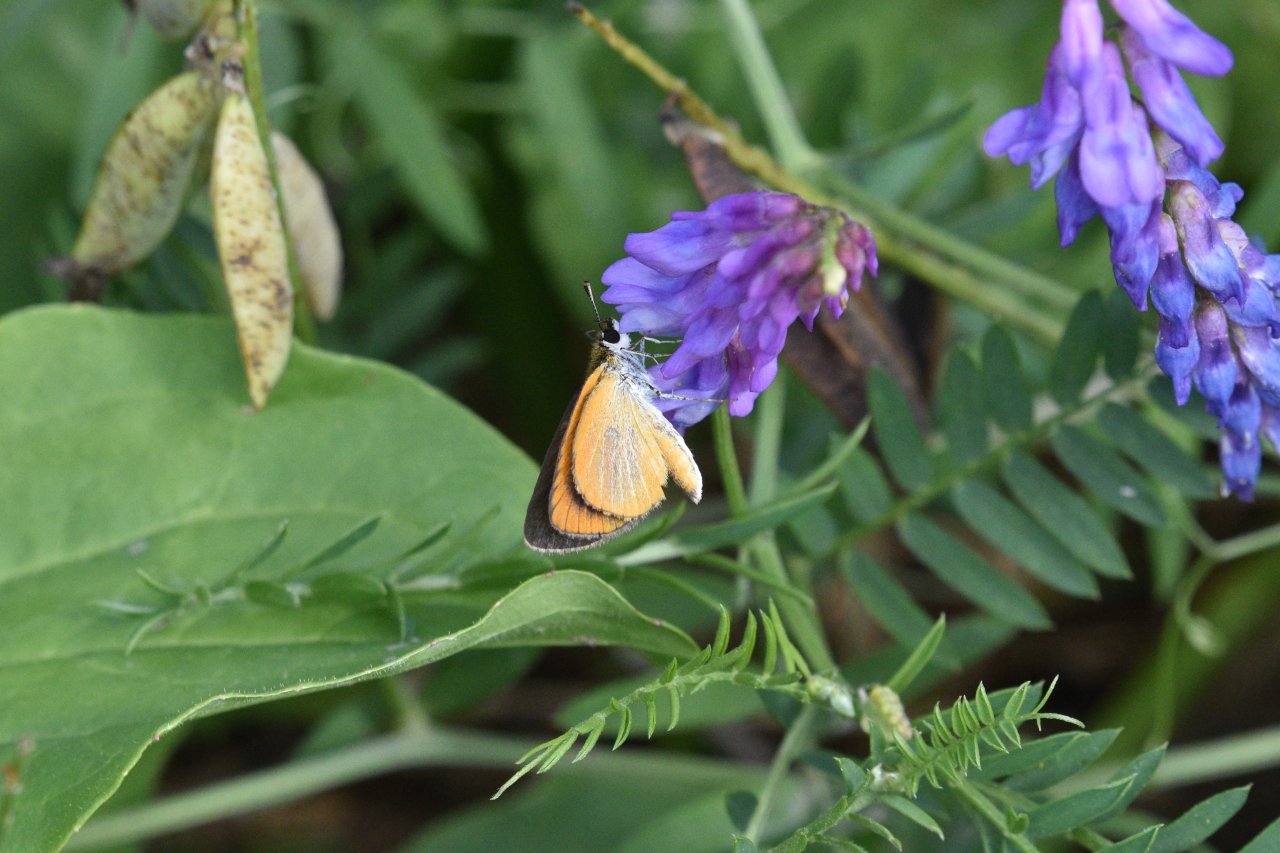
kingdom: Animalia
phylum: Arthropoda
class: Insecta
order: Lepidoptera
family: Hesperiidae
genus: Ancyloxypha
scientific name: Ancyloxypha numitor
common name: Least Skipper
